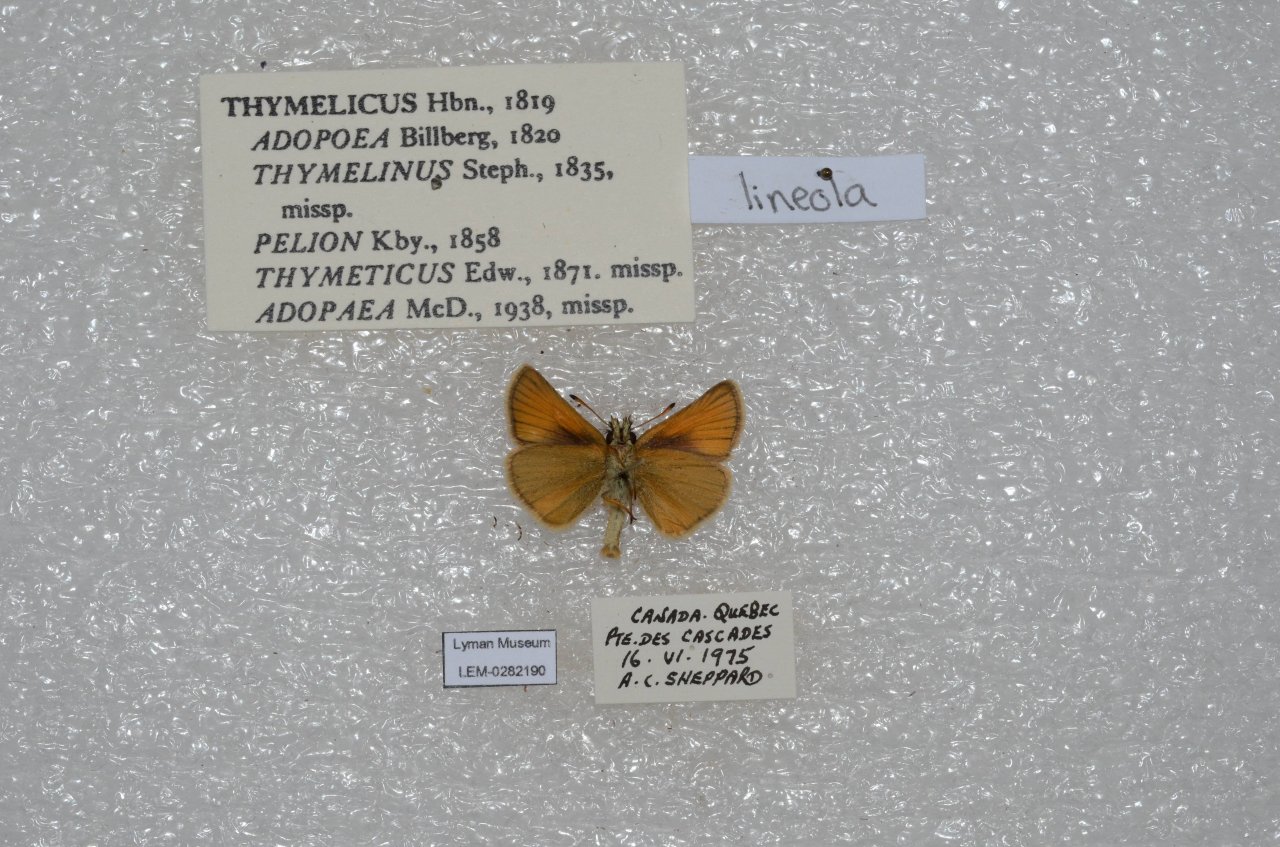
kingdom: Animalia
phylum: Arthropoda
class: Insecta
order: Lepidoptera
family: Hesperiidae
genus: Thymelicus
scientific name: Thymelicus lineola
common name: European Skipper
